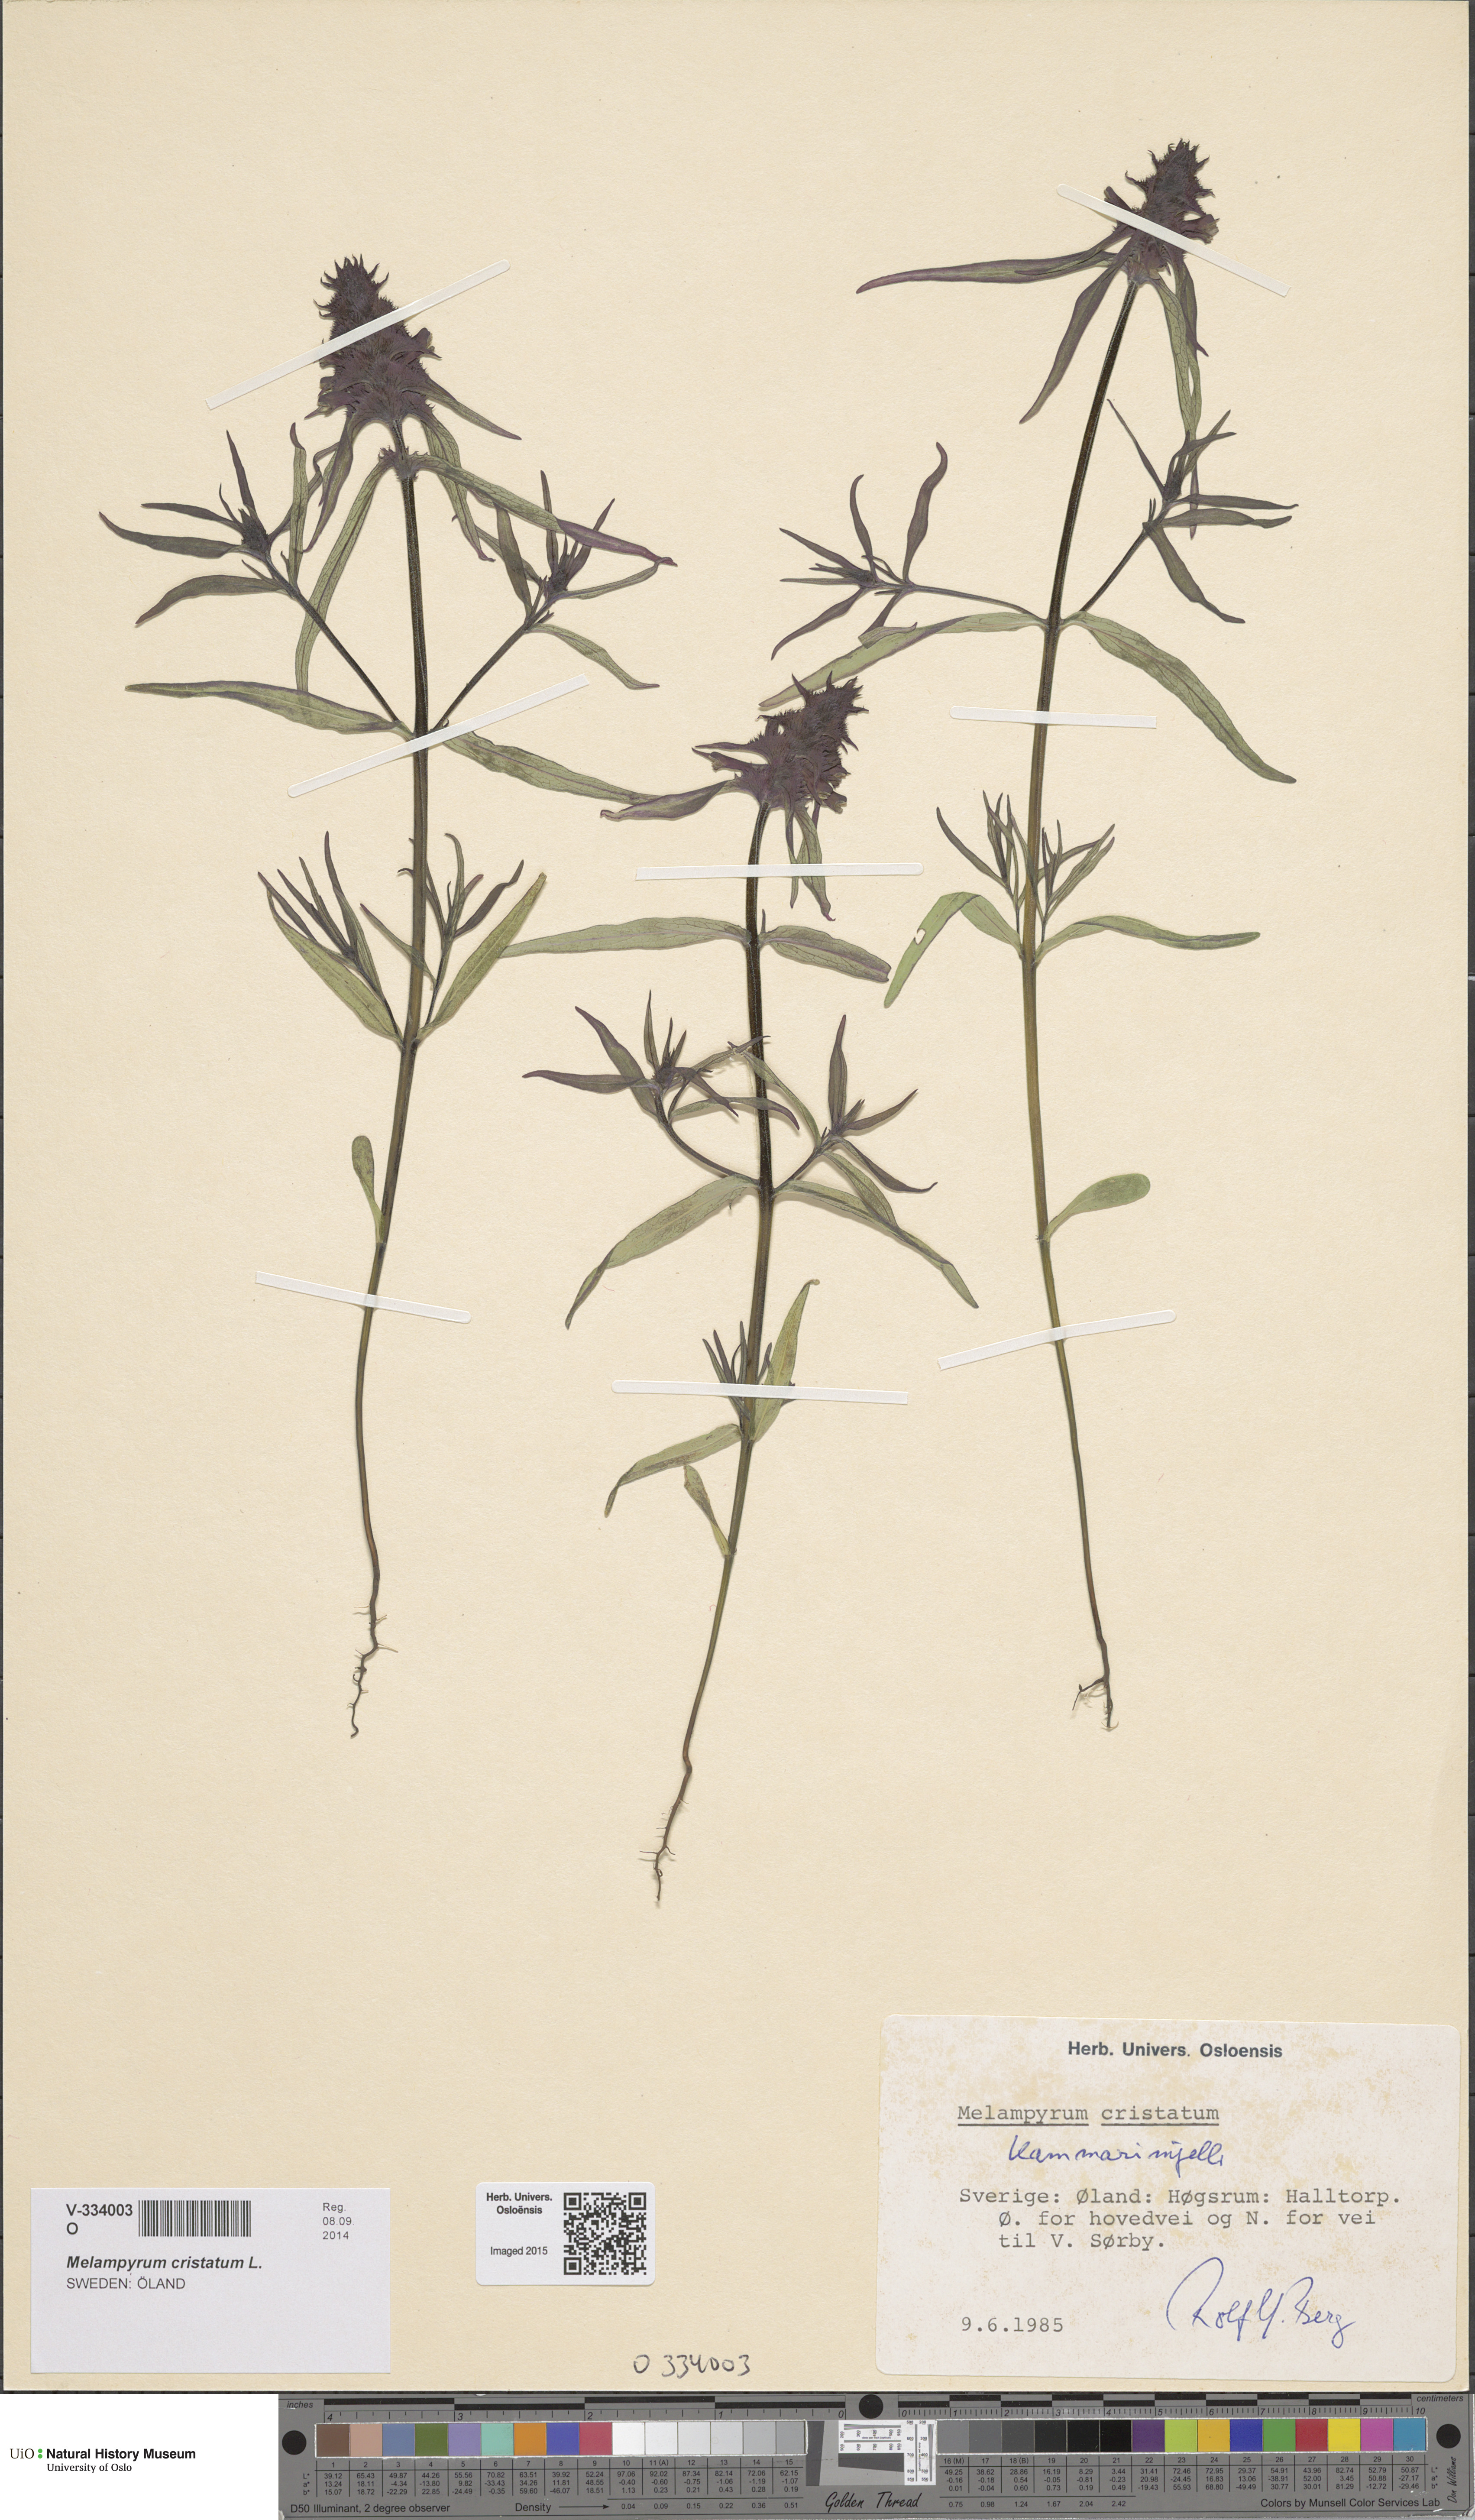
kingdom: Plantae
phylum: Tracheophyta
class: Magnoliopsida
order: Lamiales
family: Orobanchaceae
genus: Melampyrum
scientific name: Melampyrum cristatum
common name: Crested cow-wheat
